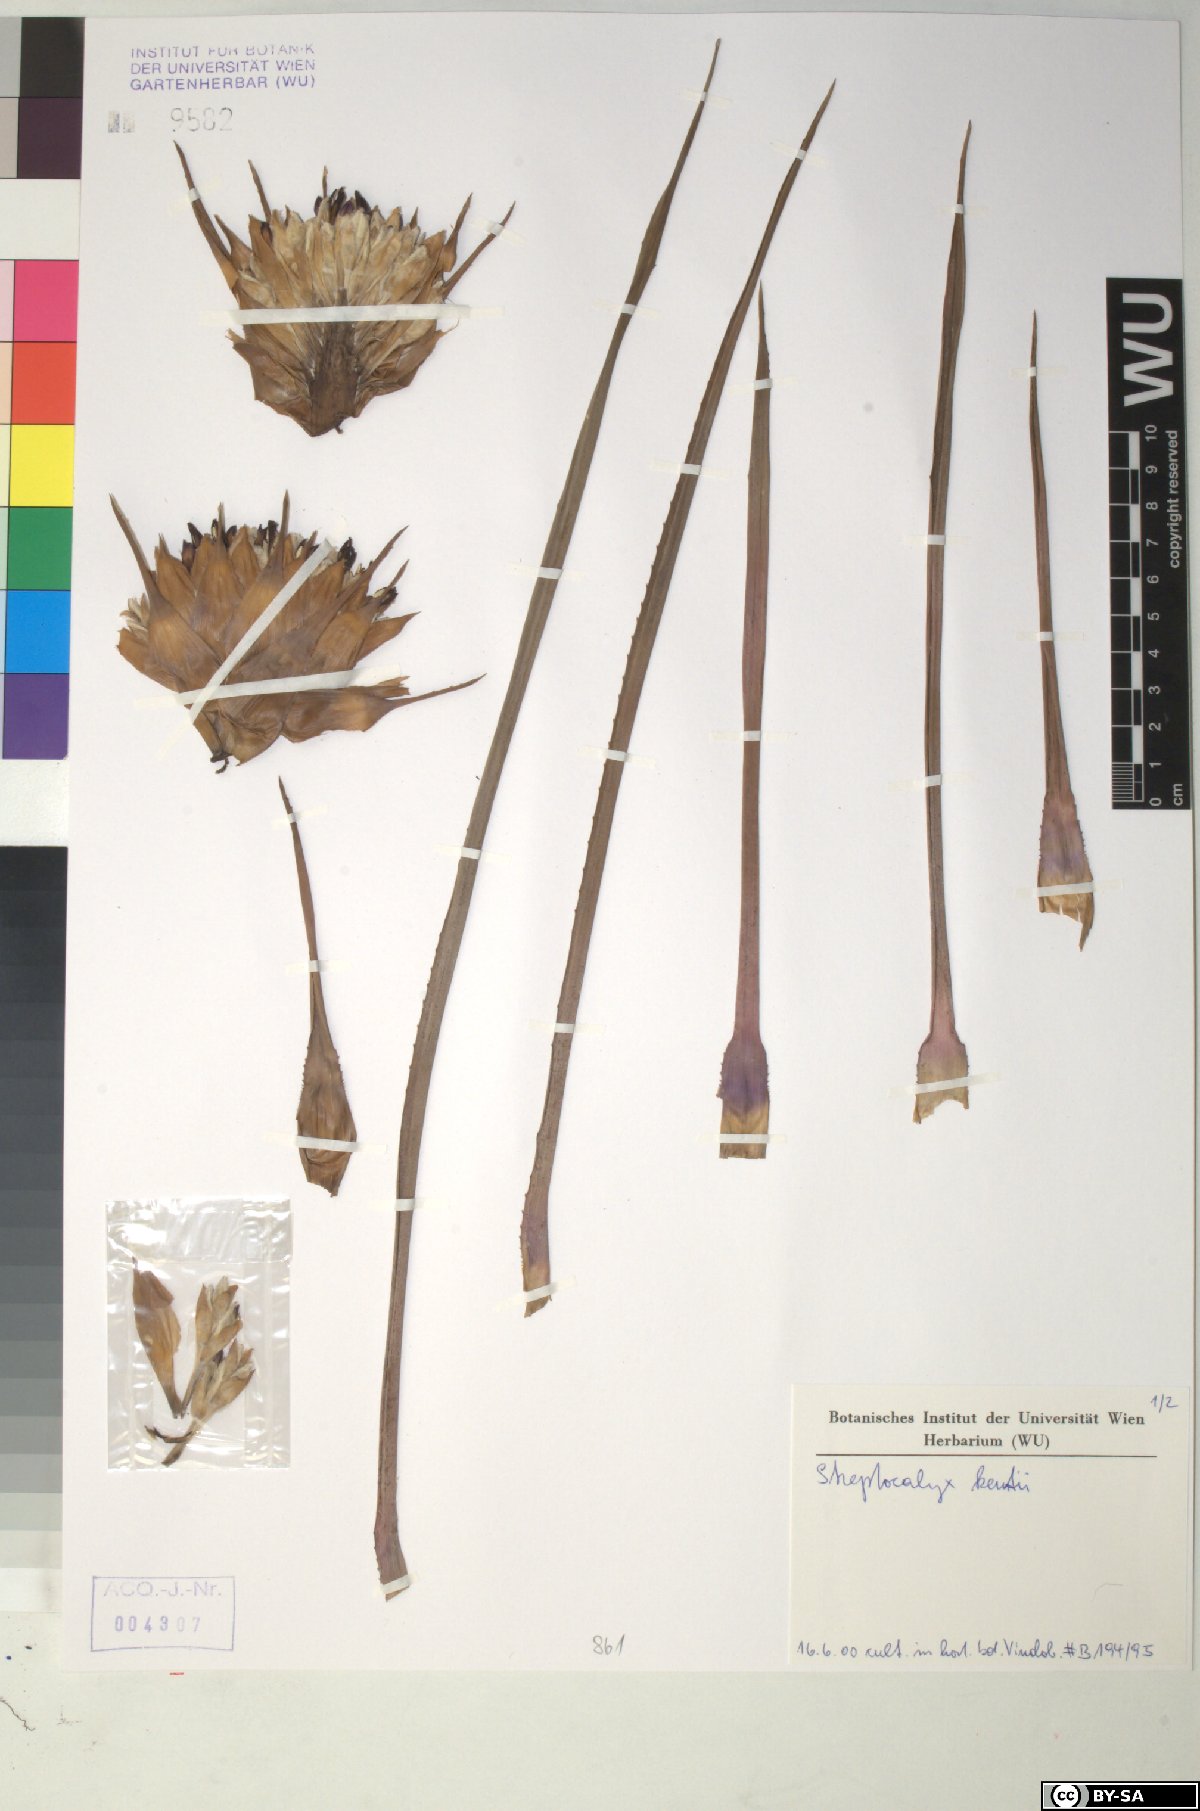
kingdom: Plantae
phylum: Tracheophyta
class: Liliopsida
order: Poales
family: Bromeliaceae
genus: Aechmea
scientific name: Aechmea
